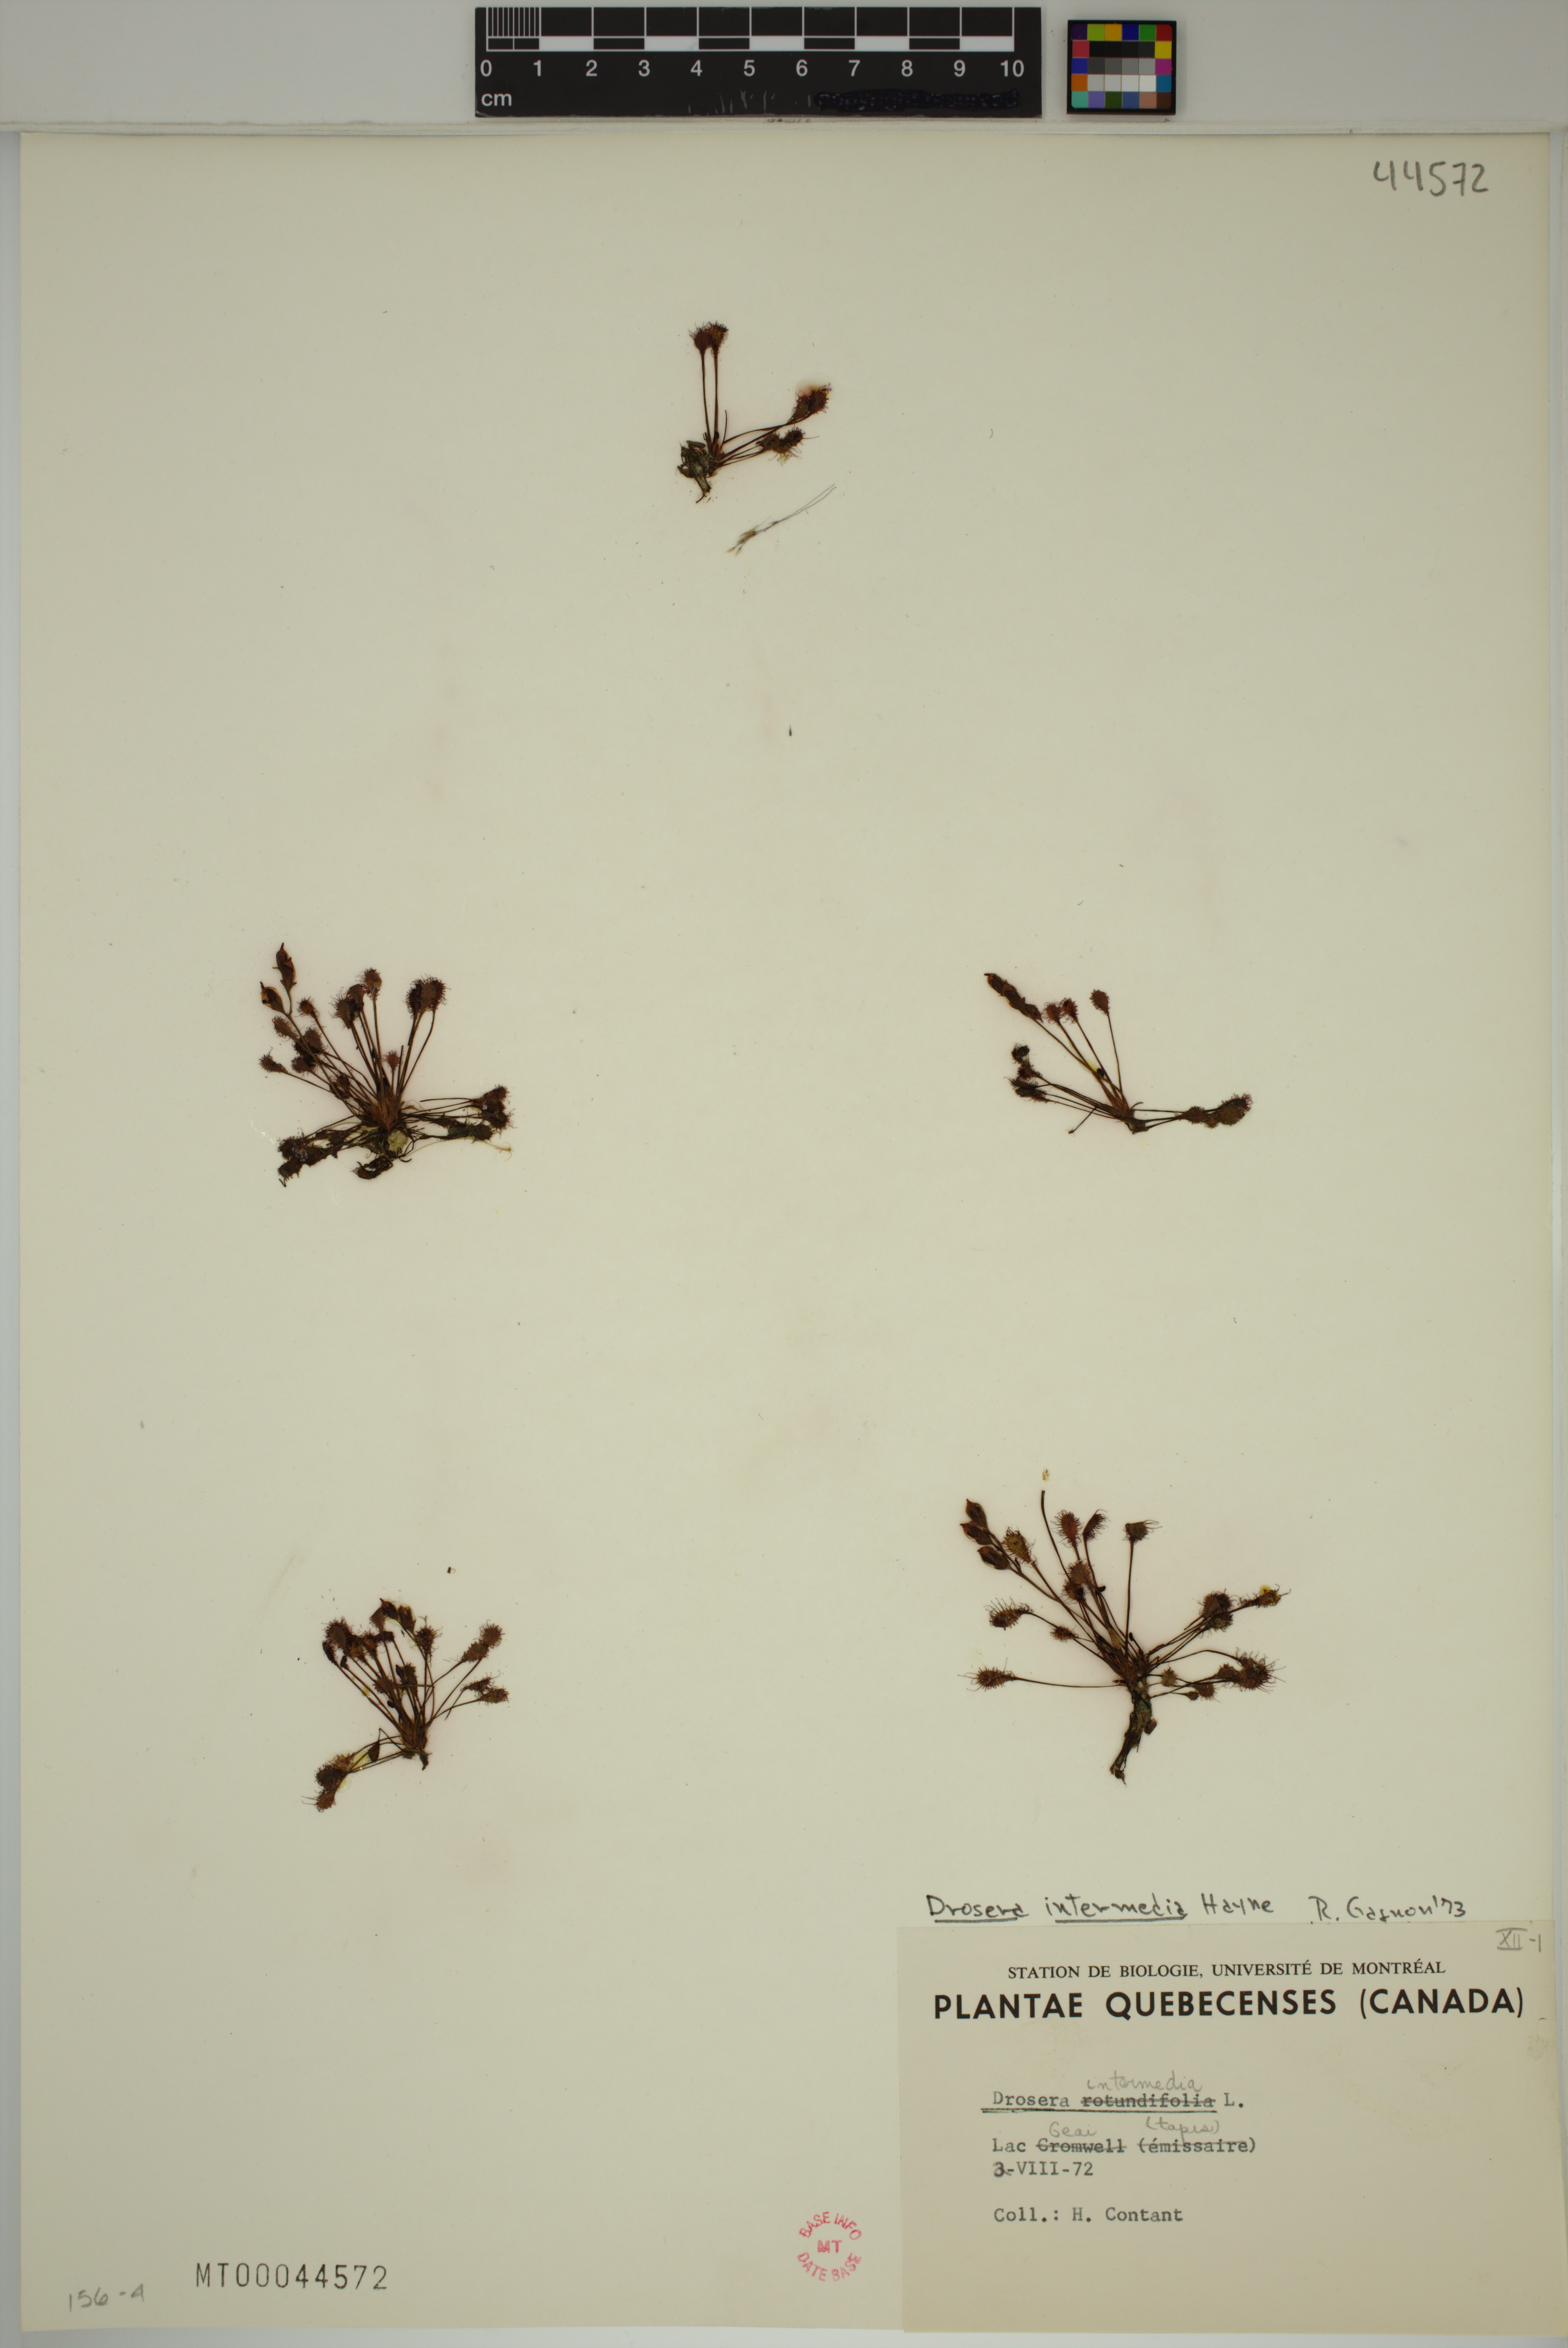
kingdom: Plantae
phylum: Tracheophyta
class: Magnoliopsida
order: Caryophyllales
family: Droseraceae
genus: Drosera
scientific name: Drosera intermedia
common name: Oblong-leaved sundew
